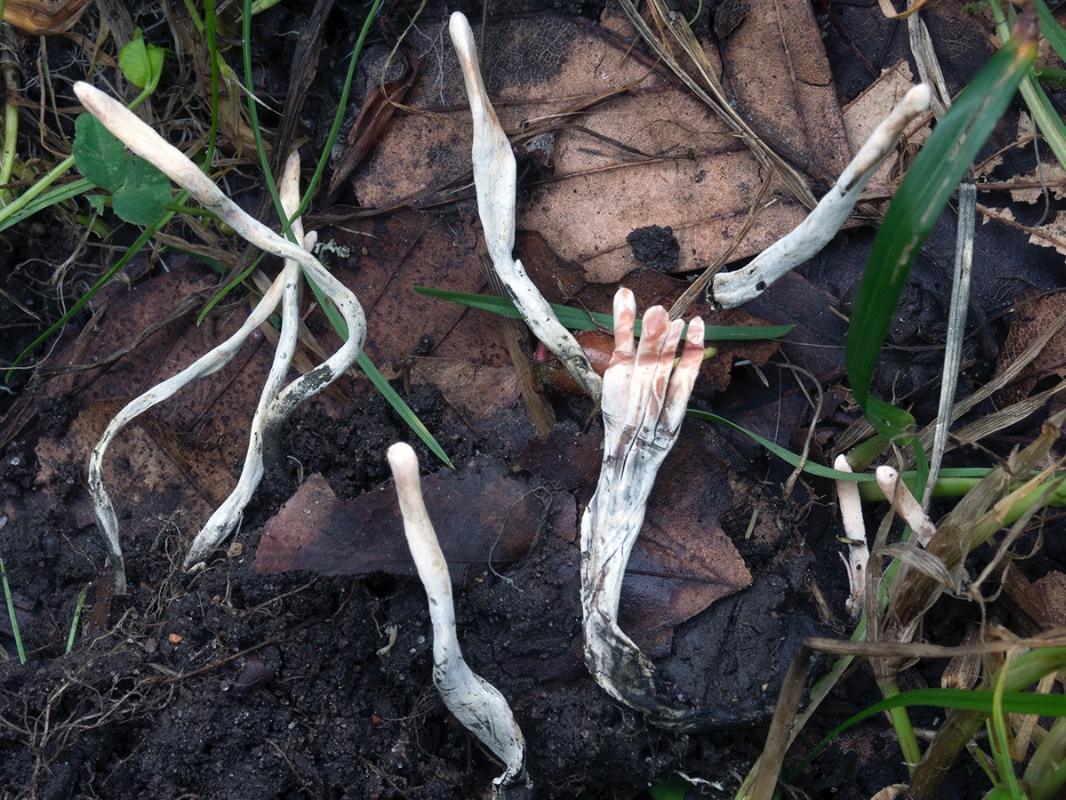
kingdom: Fungi
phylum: Ascomycota
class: Sordariomycetes
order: Xylariales
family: Xylariaceae
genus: Xylaria
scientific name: Xylaria oxyacanthae
